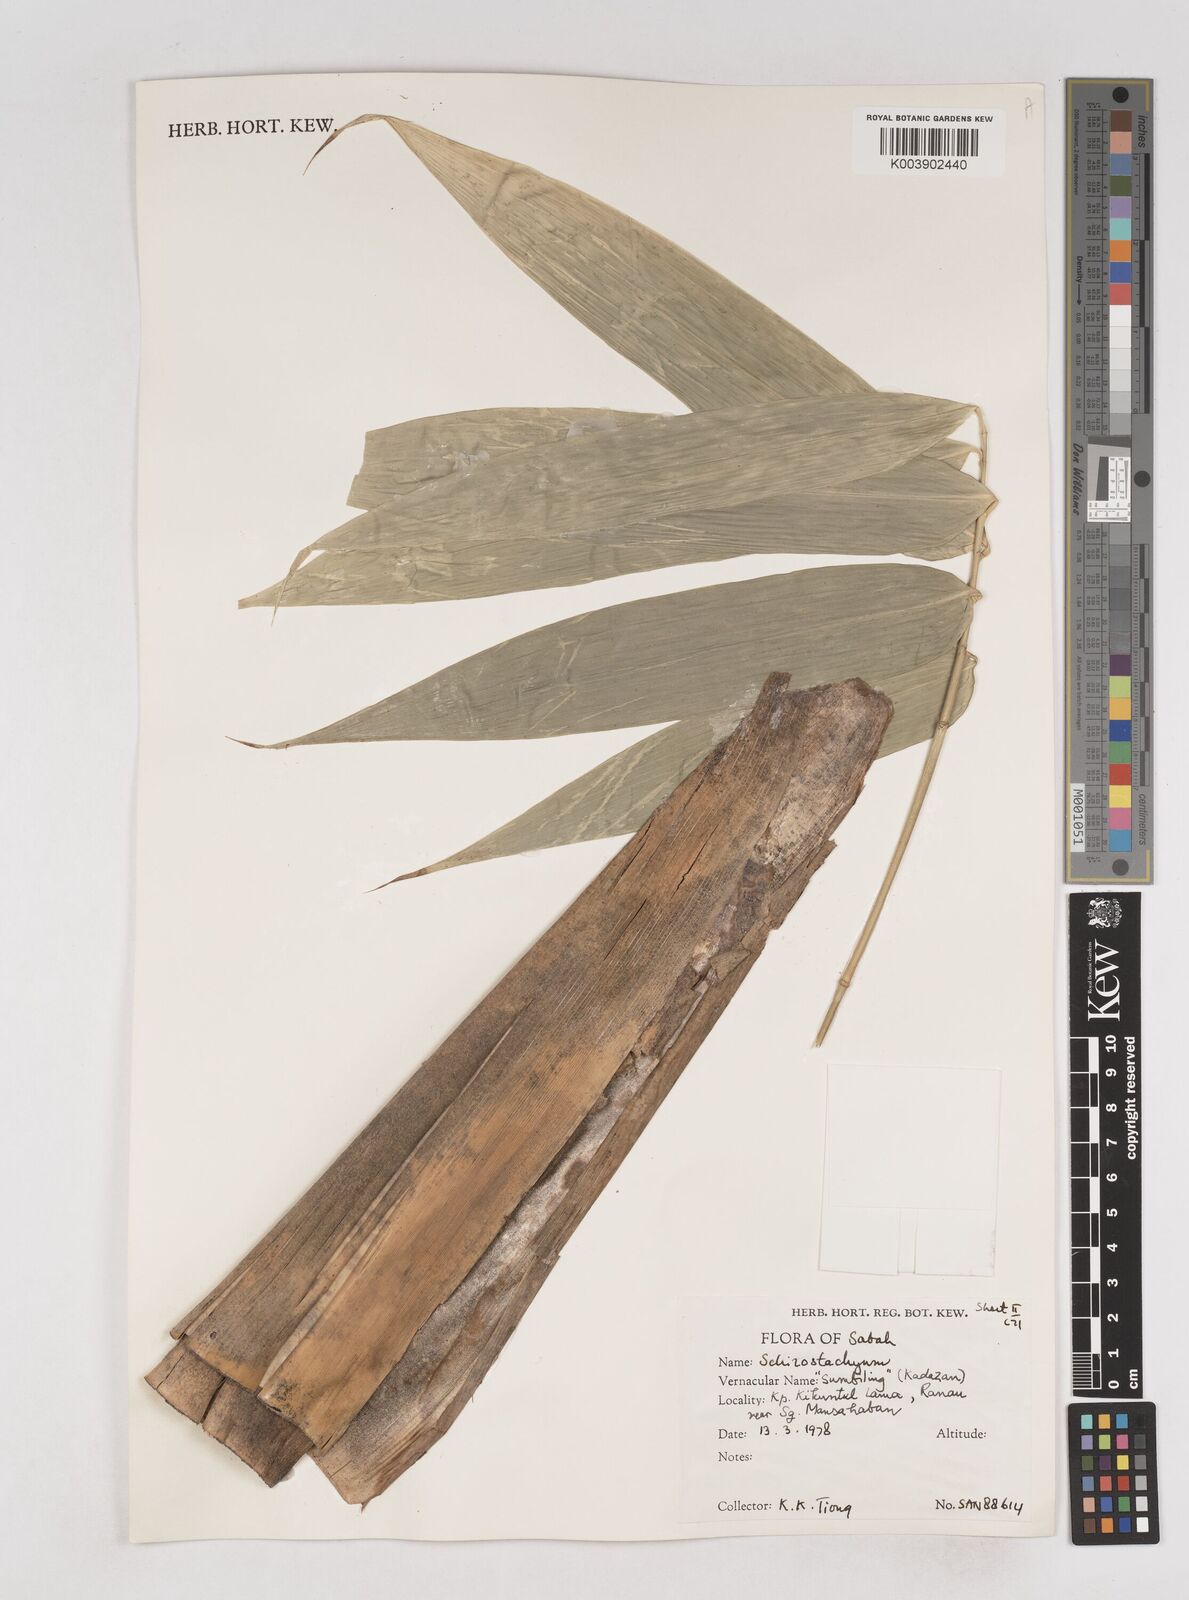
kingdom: Plantae
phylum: Tracheophyta
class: Liliopsida
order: Poales
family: Poaceae
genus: Schizostachyum
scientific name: Schizostachyum
